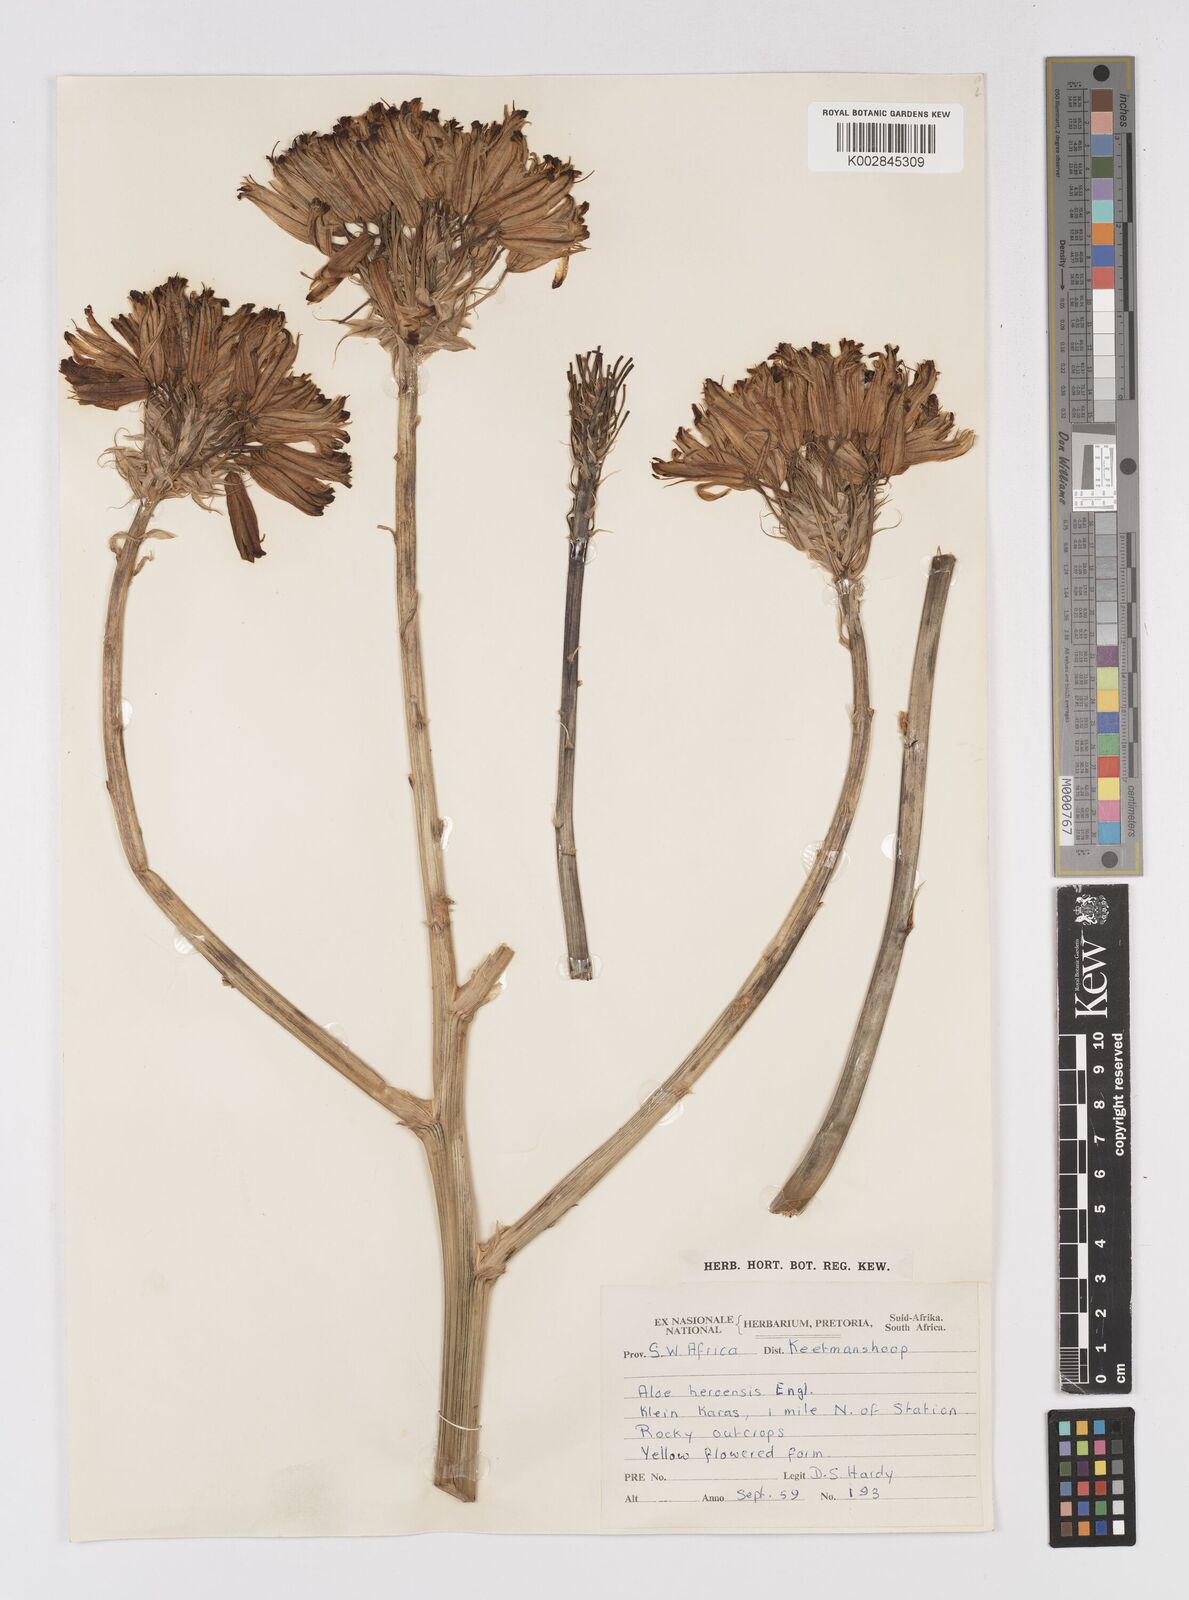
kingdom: Plantae
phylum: Tracheophyta
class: Liliopsida
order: Asparagales
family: Asphodelaceae
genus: Aloe
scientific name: Aloe hereroensis
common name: Herero aloe
